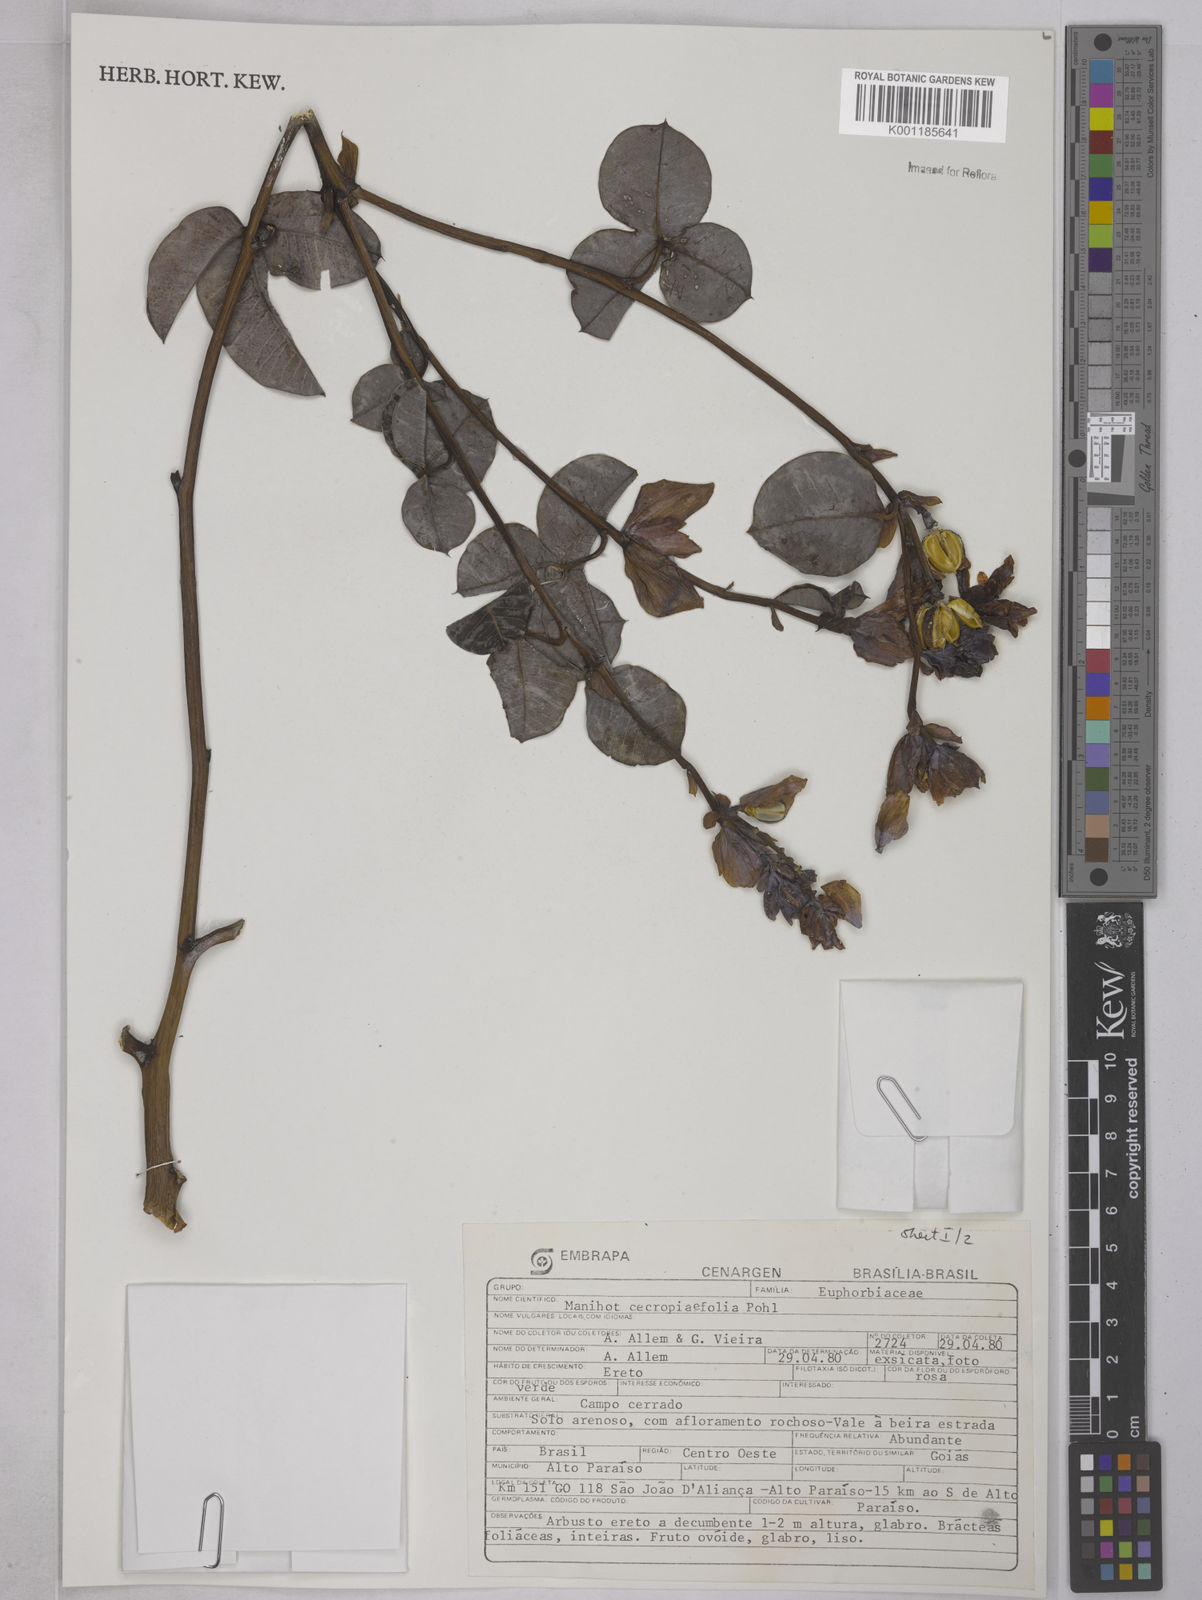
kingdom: Plantae
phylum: Tracheophyta
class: Magnoliopsida
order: Malpighiales
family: Euphorbiaceae
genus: Manihot
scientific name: Manihot cecropiifolia
